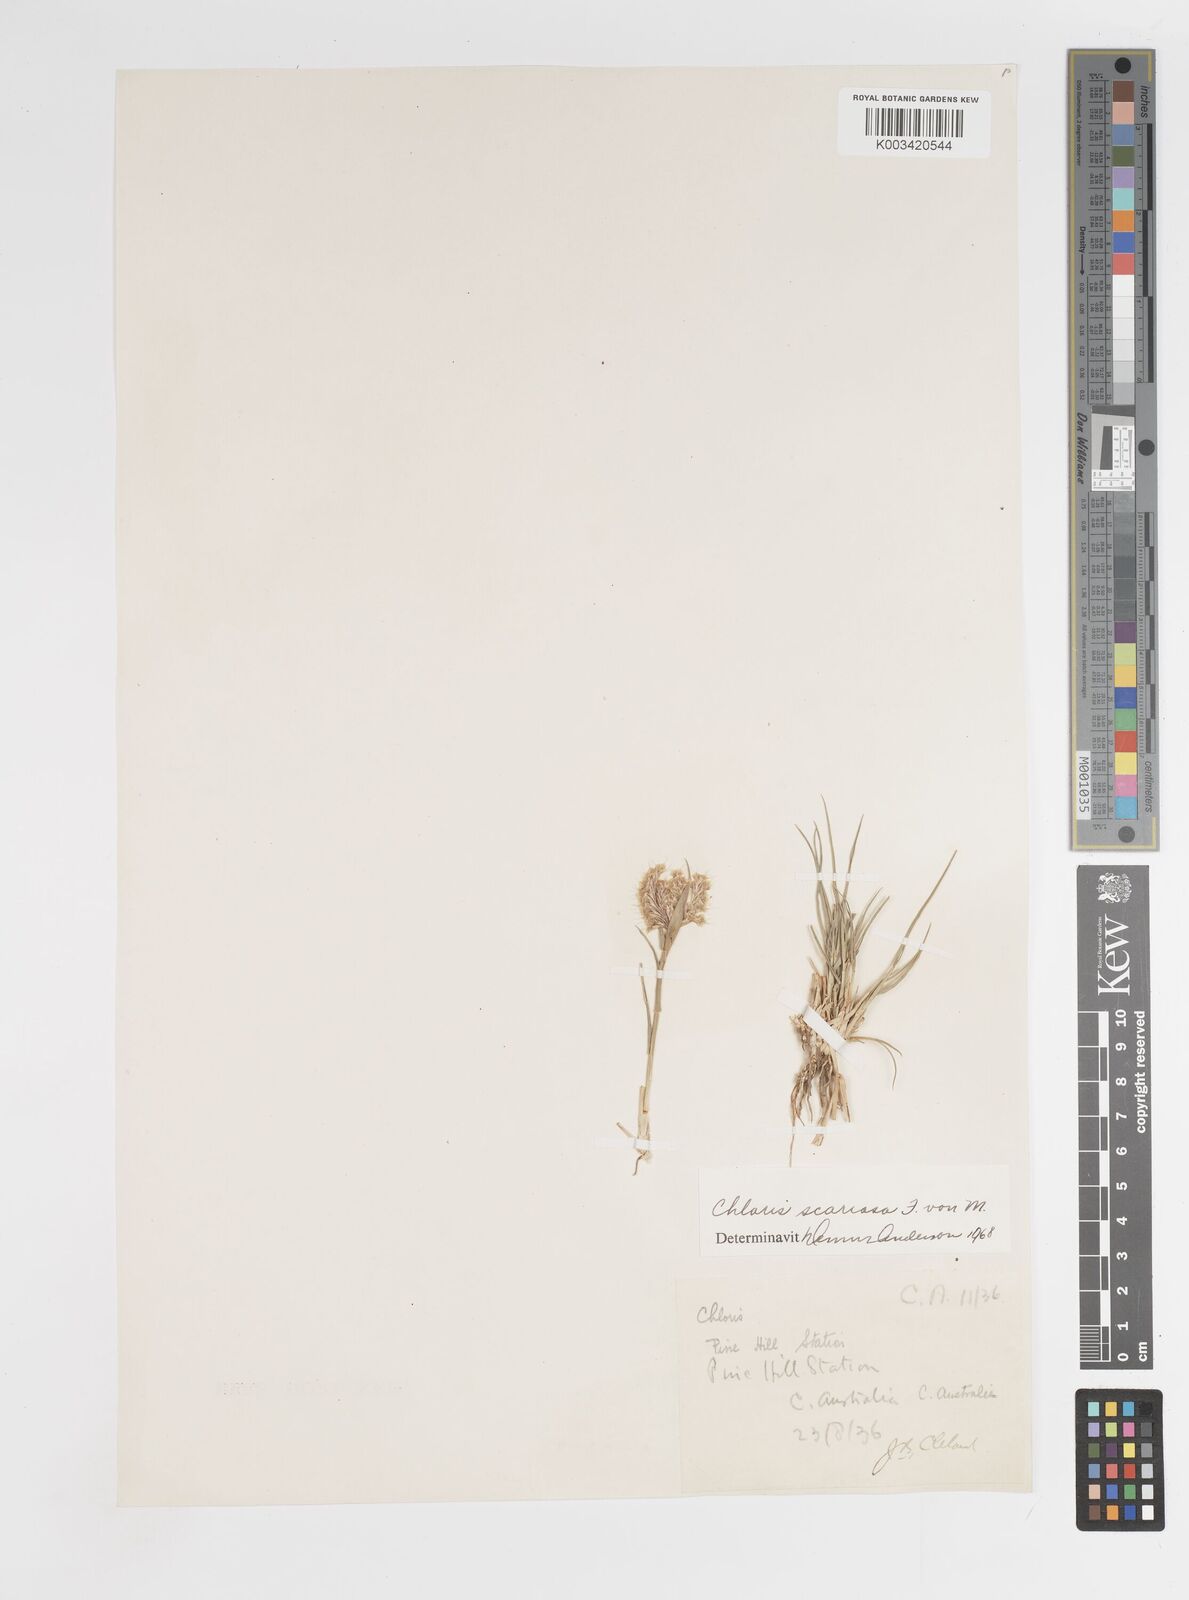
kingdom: Plantae
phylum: Tracheophyta
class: Liliopsida
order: Poales
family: Poaceae
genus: Oxychloris
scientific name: Oxychloris scariosa
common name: Winged windmill grass
